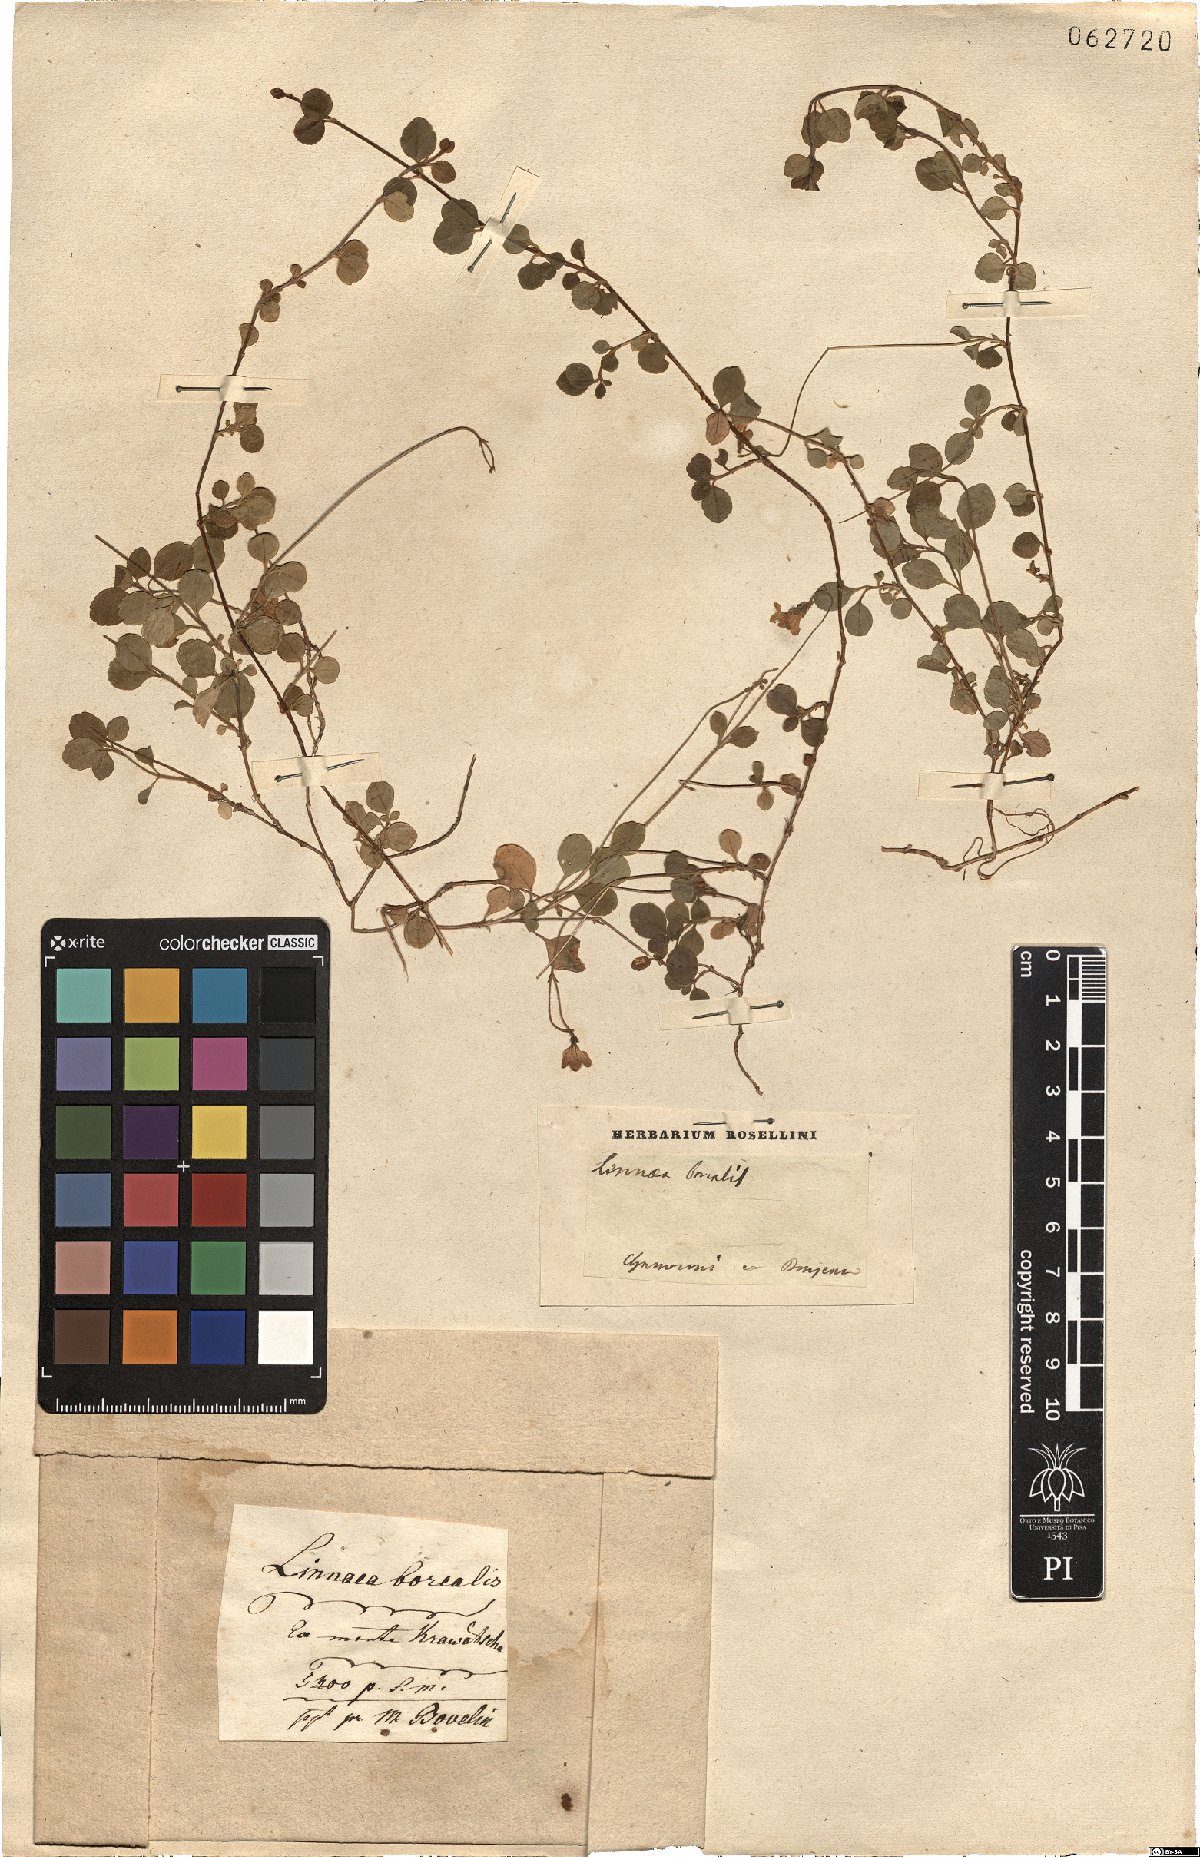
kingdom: Plantae
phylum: Tracheophyta
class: Magnoliopsida
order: Dipsacales
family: Caprifoliaceae
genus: Linnaea
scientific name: Linnaea borealis
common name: Twinflower
